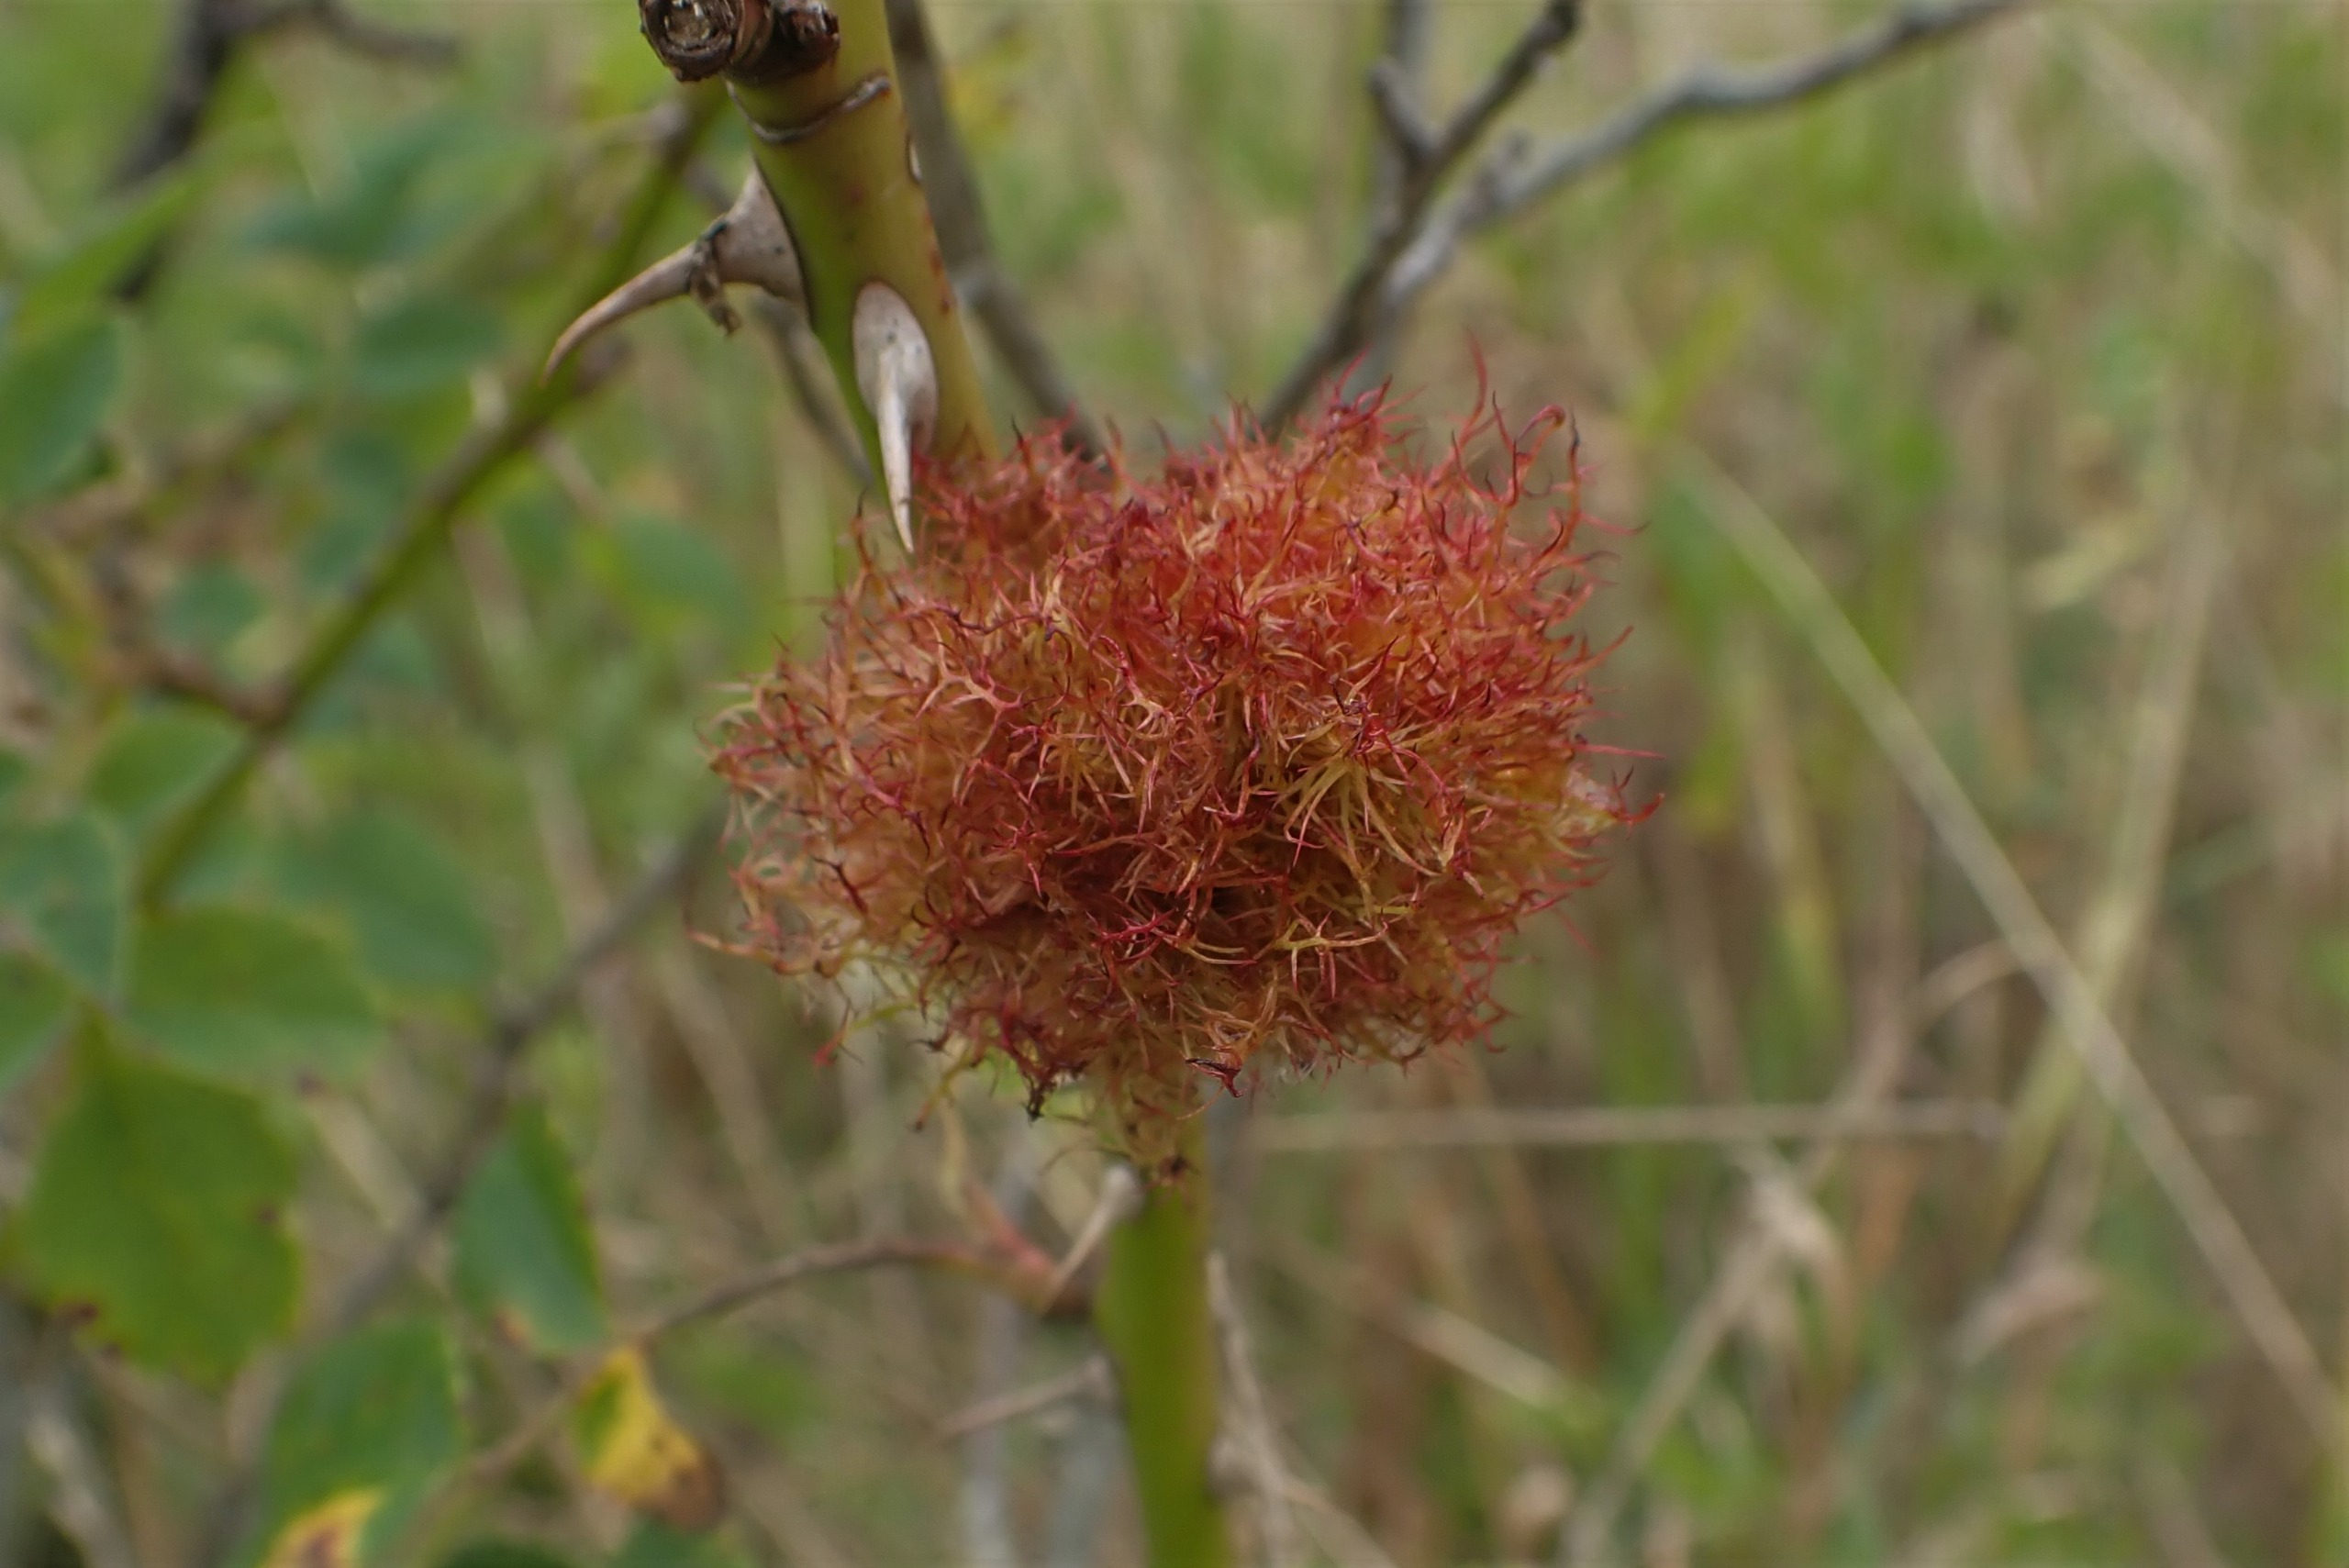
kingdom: Animalia
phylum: Arthropoda
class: Insecta
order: Hymenoptera
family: Cynipidae
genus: Diplolepis
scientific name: Diplolepis rosae
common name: Bedeguargalhveps
